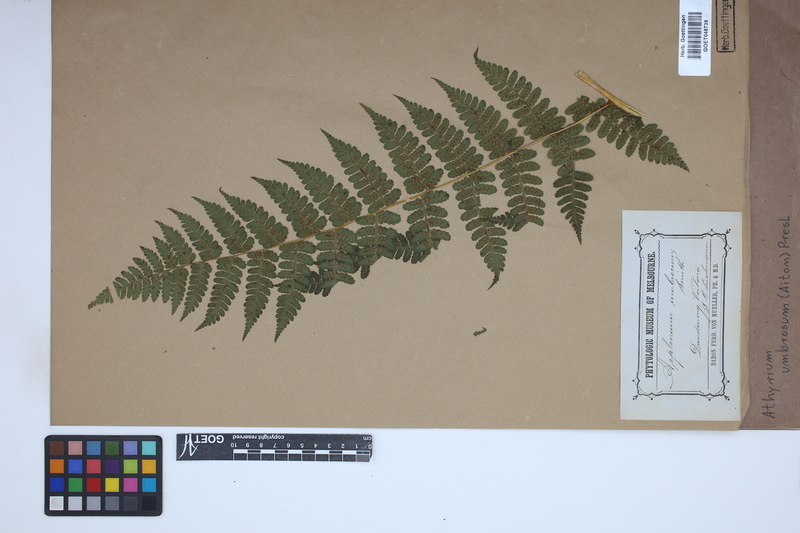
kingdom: Plantae
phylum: Tracheophyta
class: Polypodiopsida
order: Polypodiales
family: Athyriaceae
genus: Diplazium
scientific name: Diplazium caudatum
